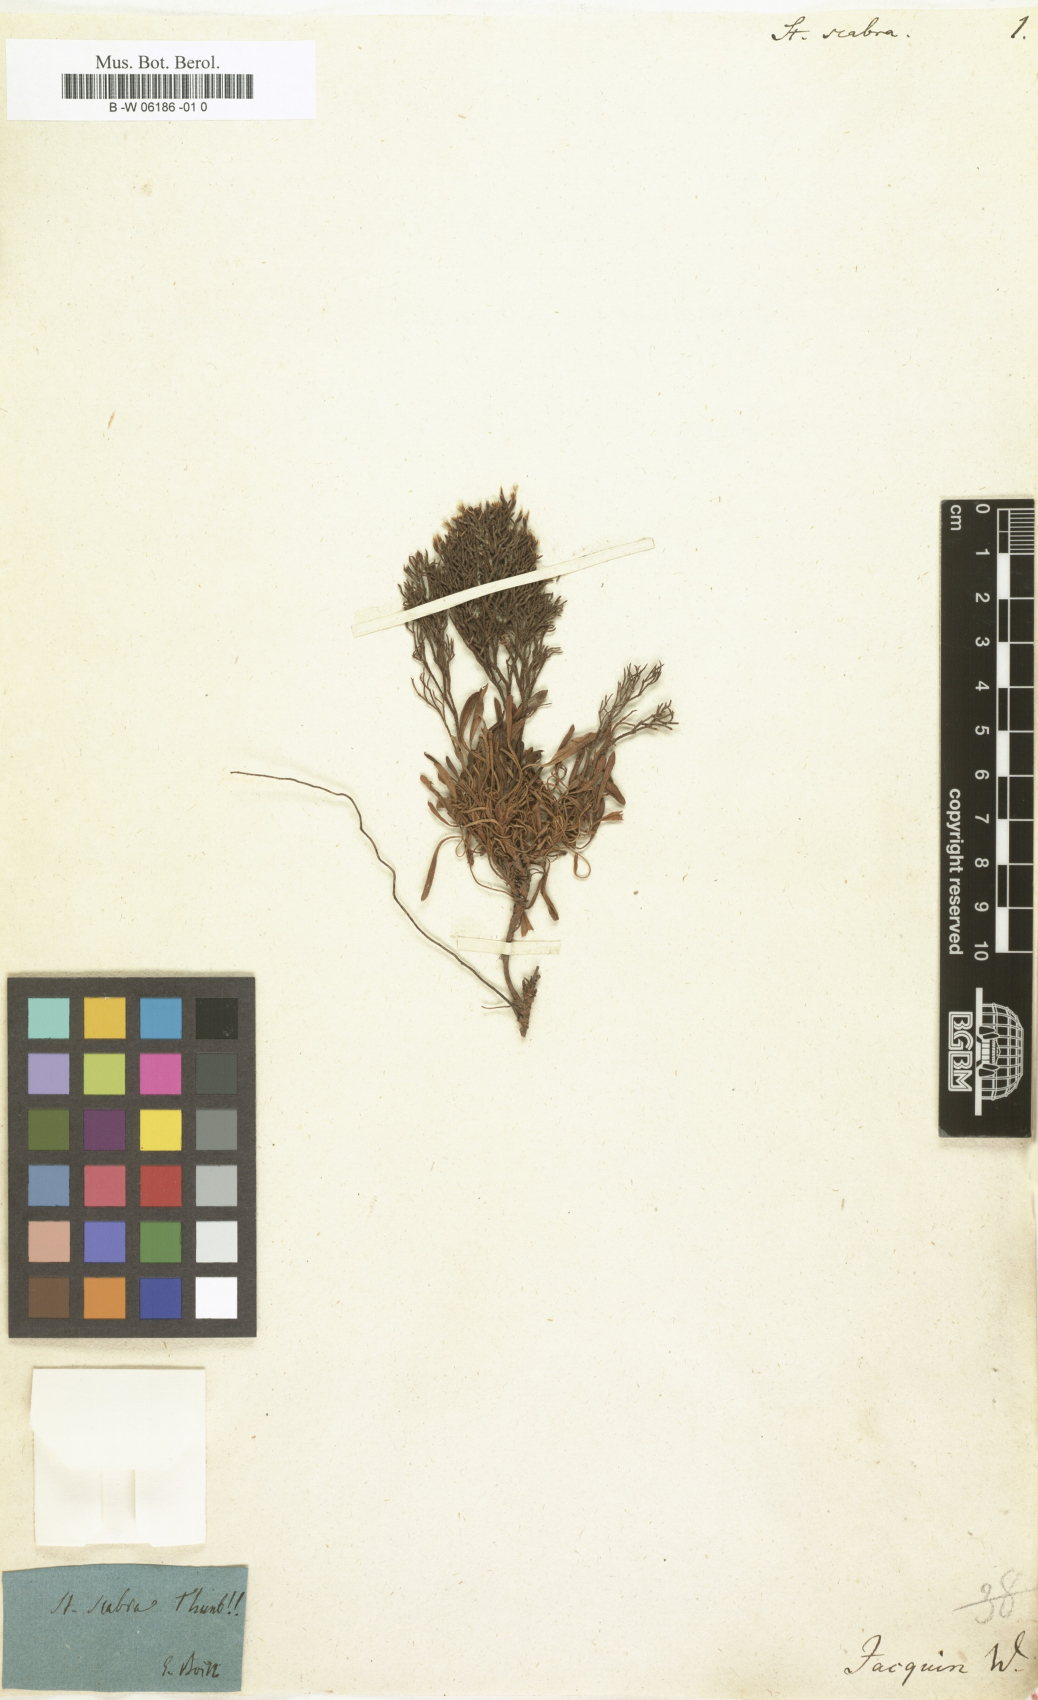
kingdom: Plantae
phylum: Tracheophyta
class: Magnoliopsida
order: Caryophyllales
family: Plumbaginaceae
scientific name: Plumbaginaceae
